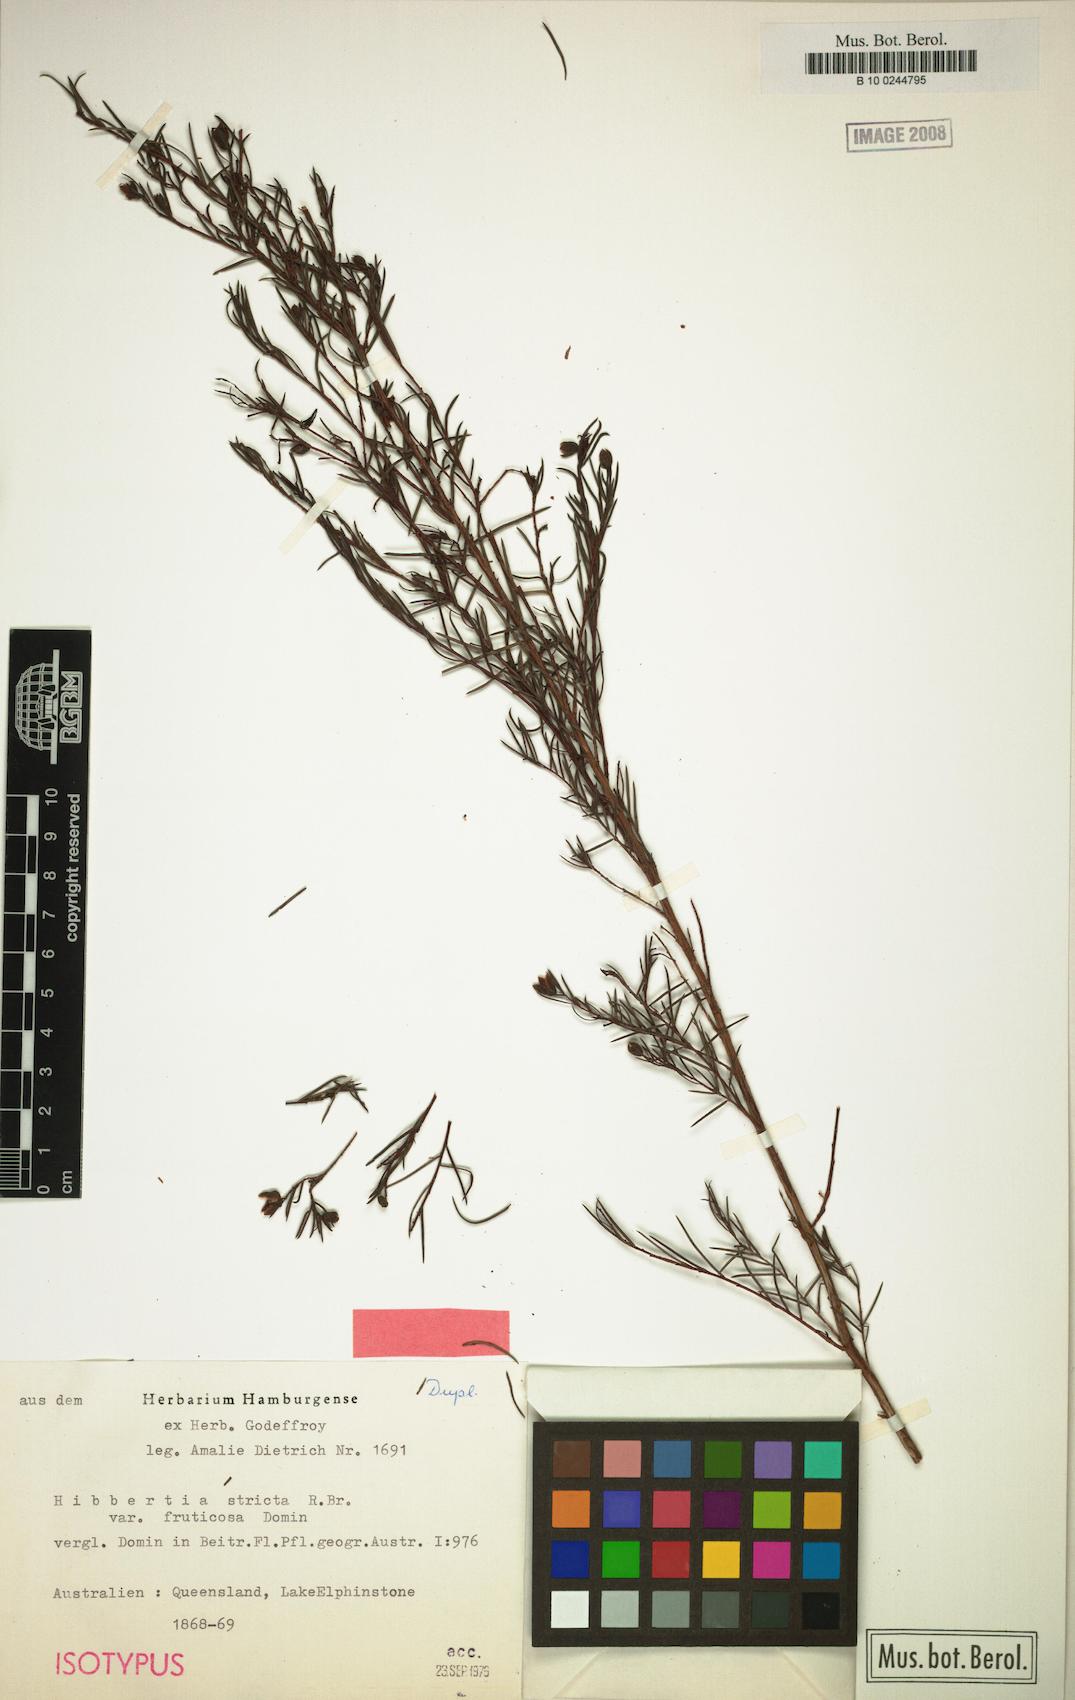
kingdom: Plantae
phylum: Tracheophyta
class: Magnoliopsida
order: Dilleniales
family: Dilleniaceae
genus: Hibbertia
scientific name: Hibbertia stricta
